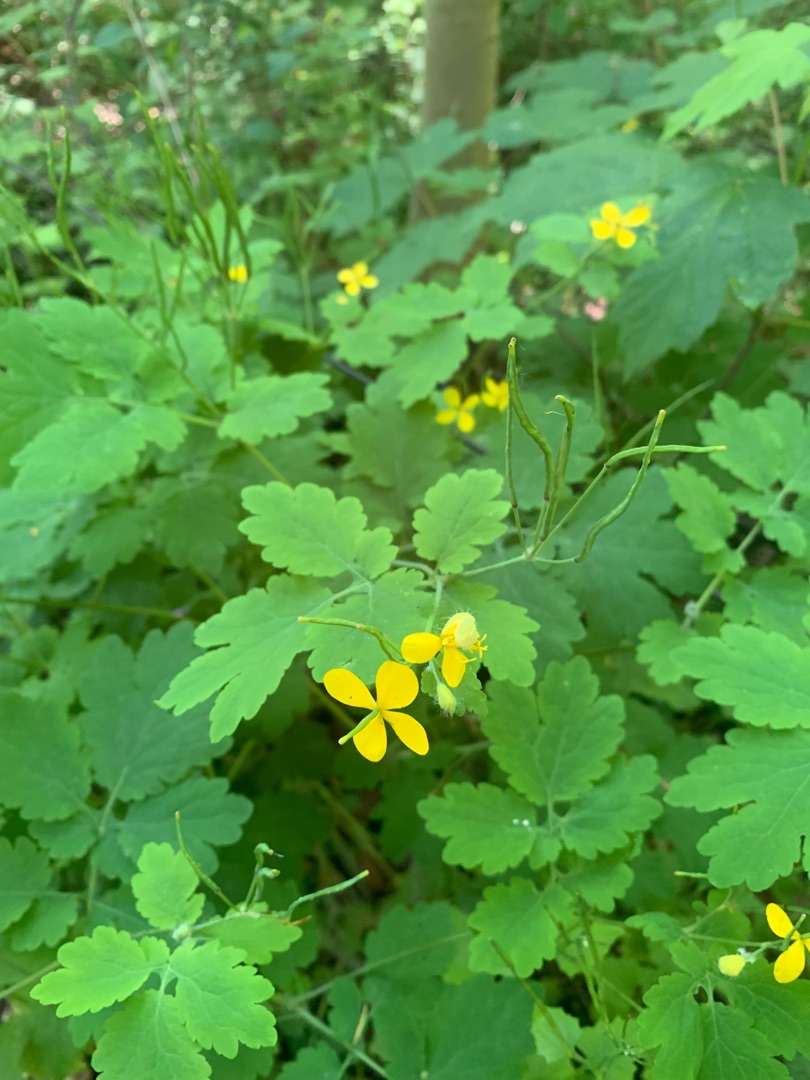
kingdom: Plantae
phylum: Tracheophyta
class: Magnoliopsida
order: Ranunculales
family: Papaveraceae
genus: Chelidonium
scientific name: Chelidonium majus
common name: Svaleurt
